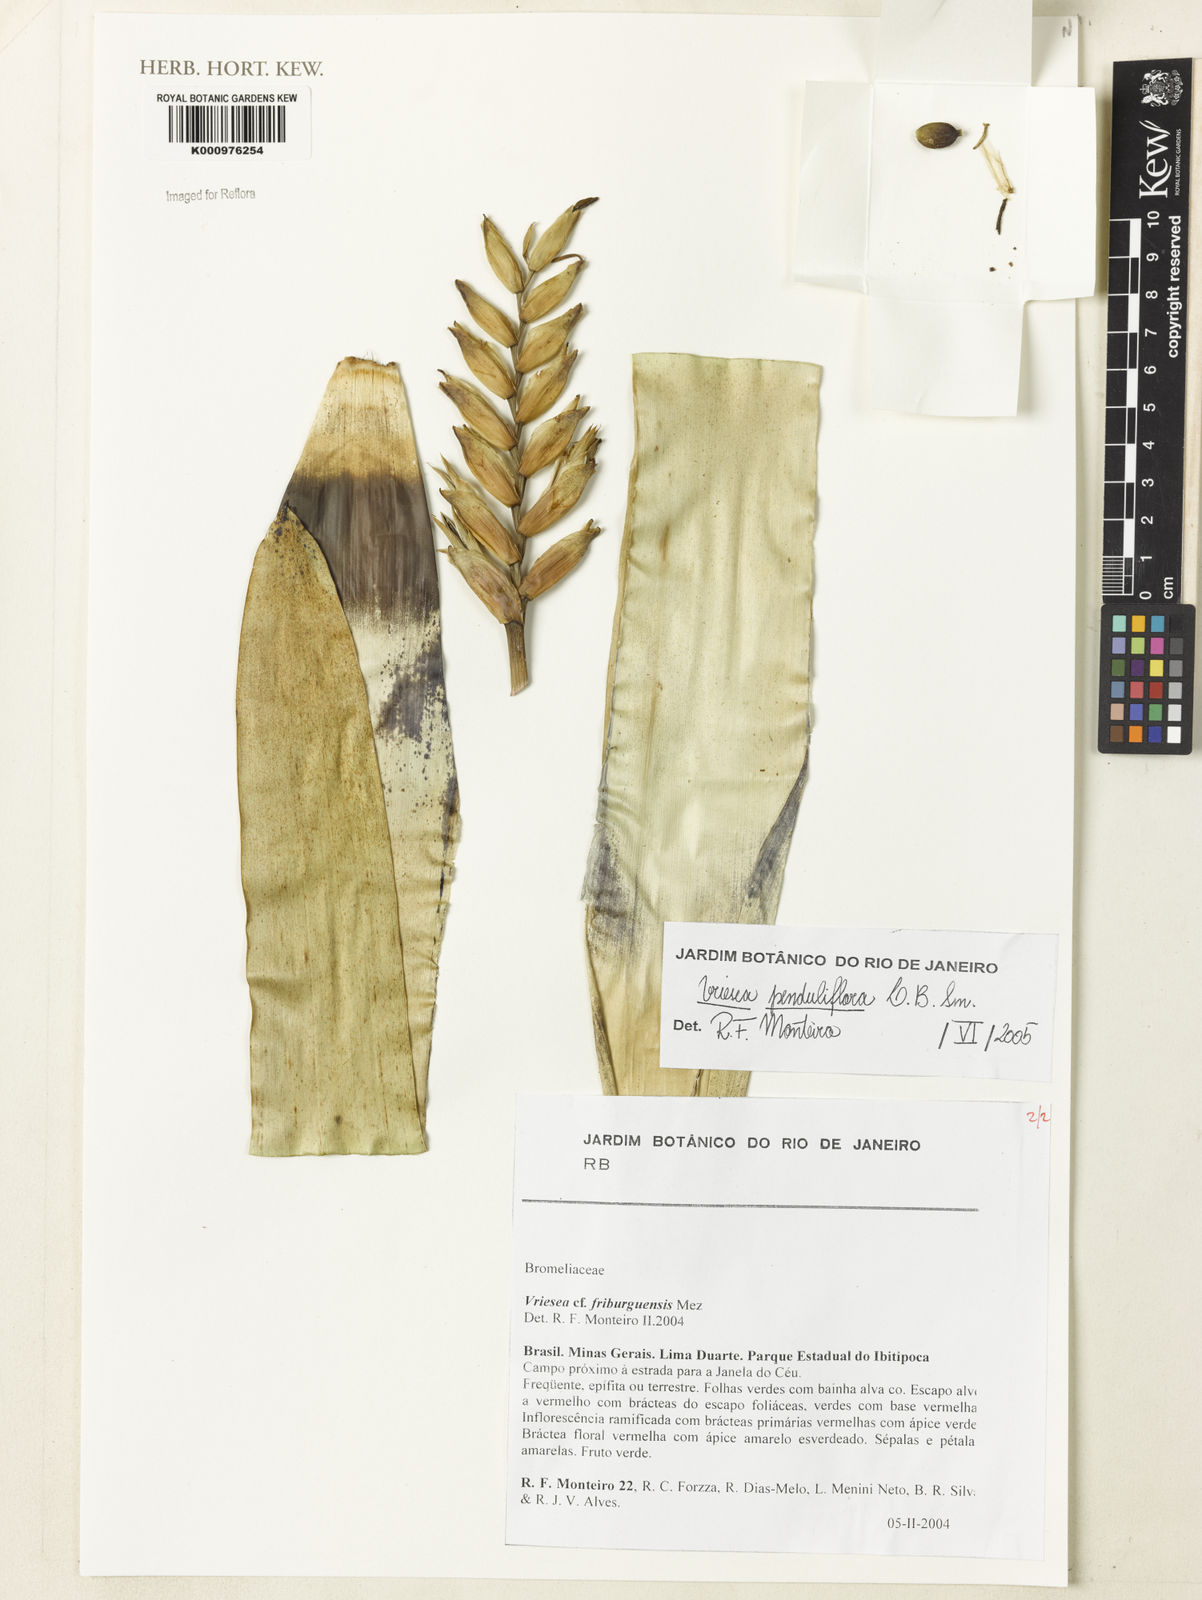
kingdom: Plantae
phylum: Tracheophyta
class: Liliopsida
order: Poales
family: Bromeliaceae
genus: Vriesea
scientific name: Vriesea penduliflora
